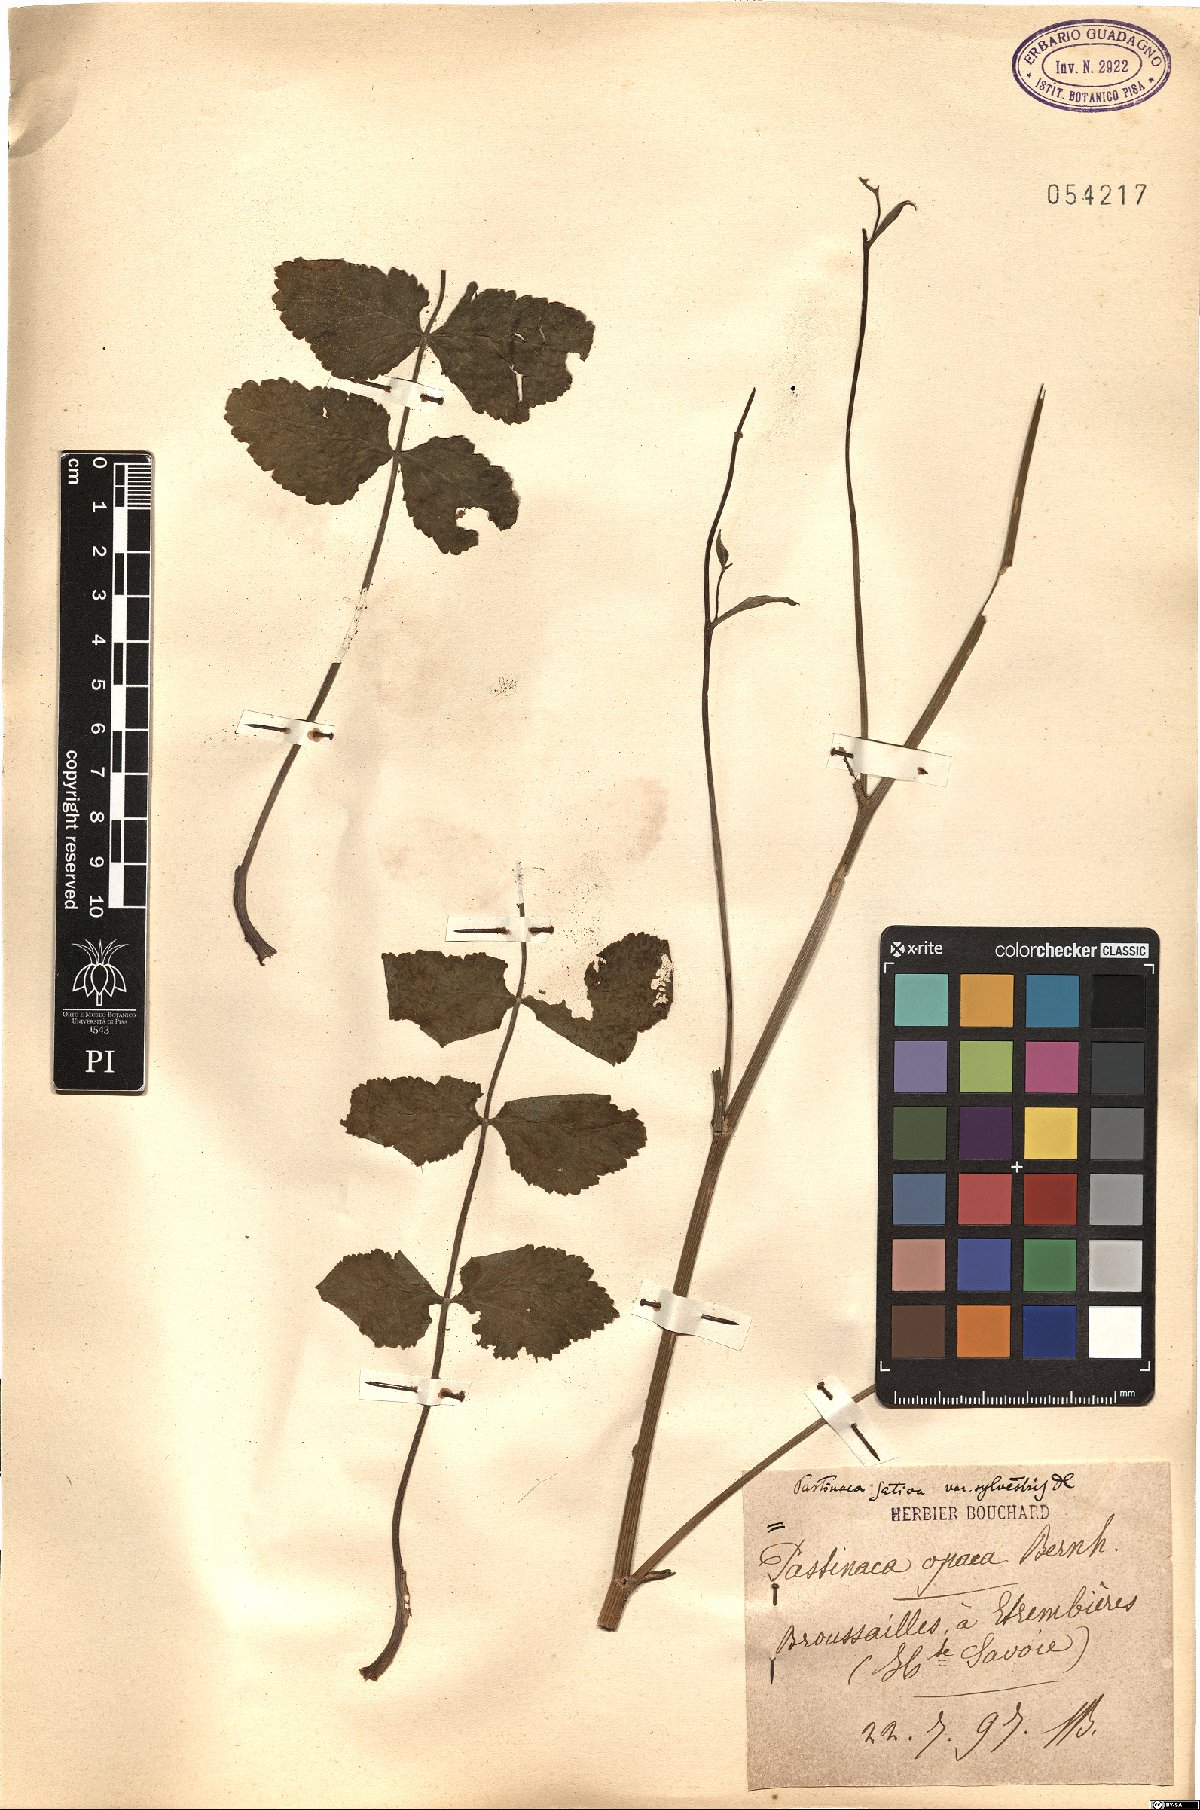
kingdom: Plantae
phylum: Tracheophyta
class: Magnoliopsida
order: Apiales
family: Apiaceae
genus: Pastinaca
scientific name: Pastinaca sativa
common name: Wild parsnip
